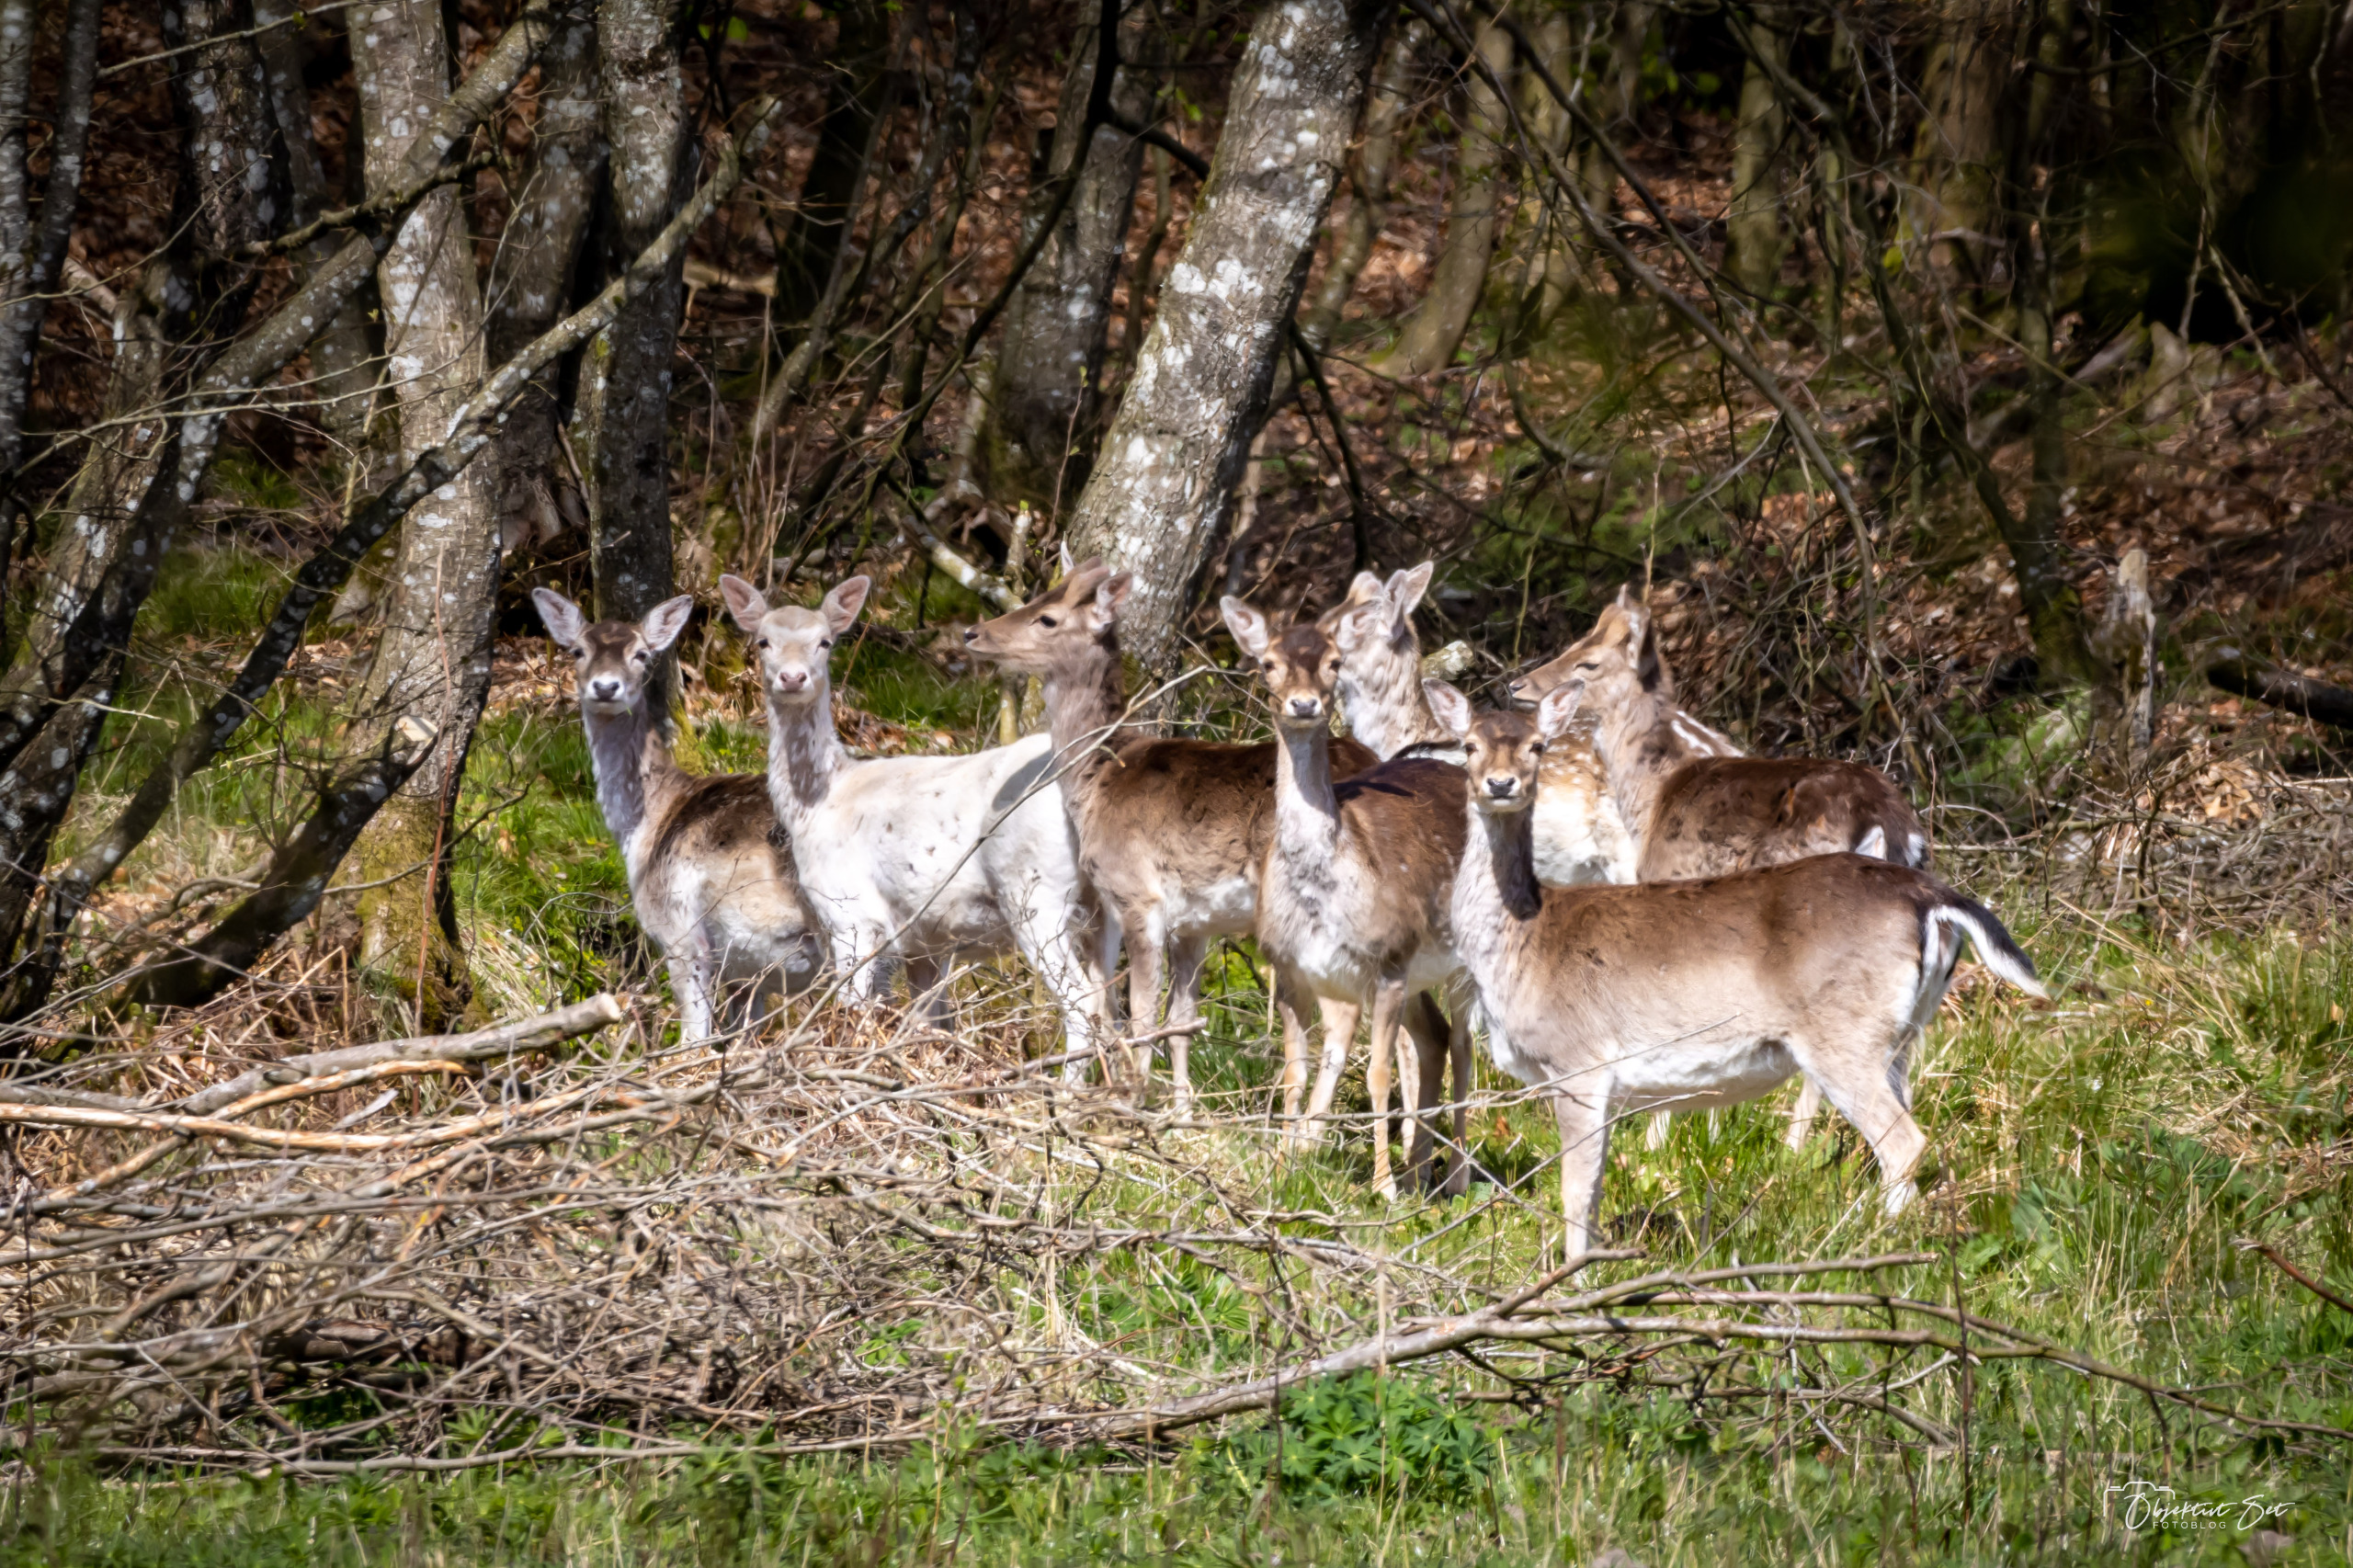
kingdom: Animalia
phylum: Chordata
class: Mammalia
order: Artiodactyla
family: Cervidae
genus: Dama
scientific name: Dama dama
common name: Dådyr
